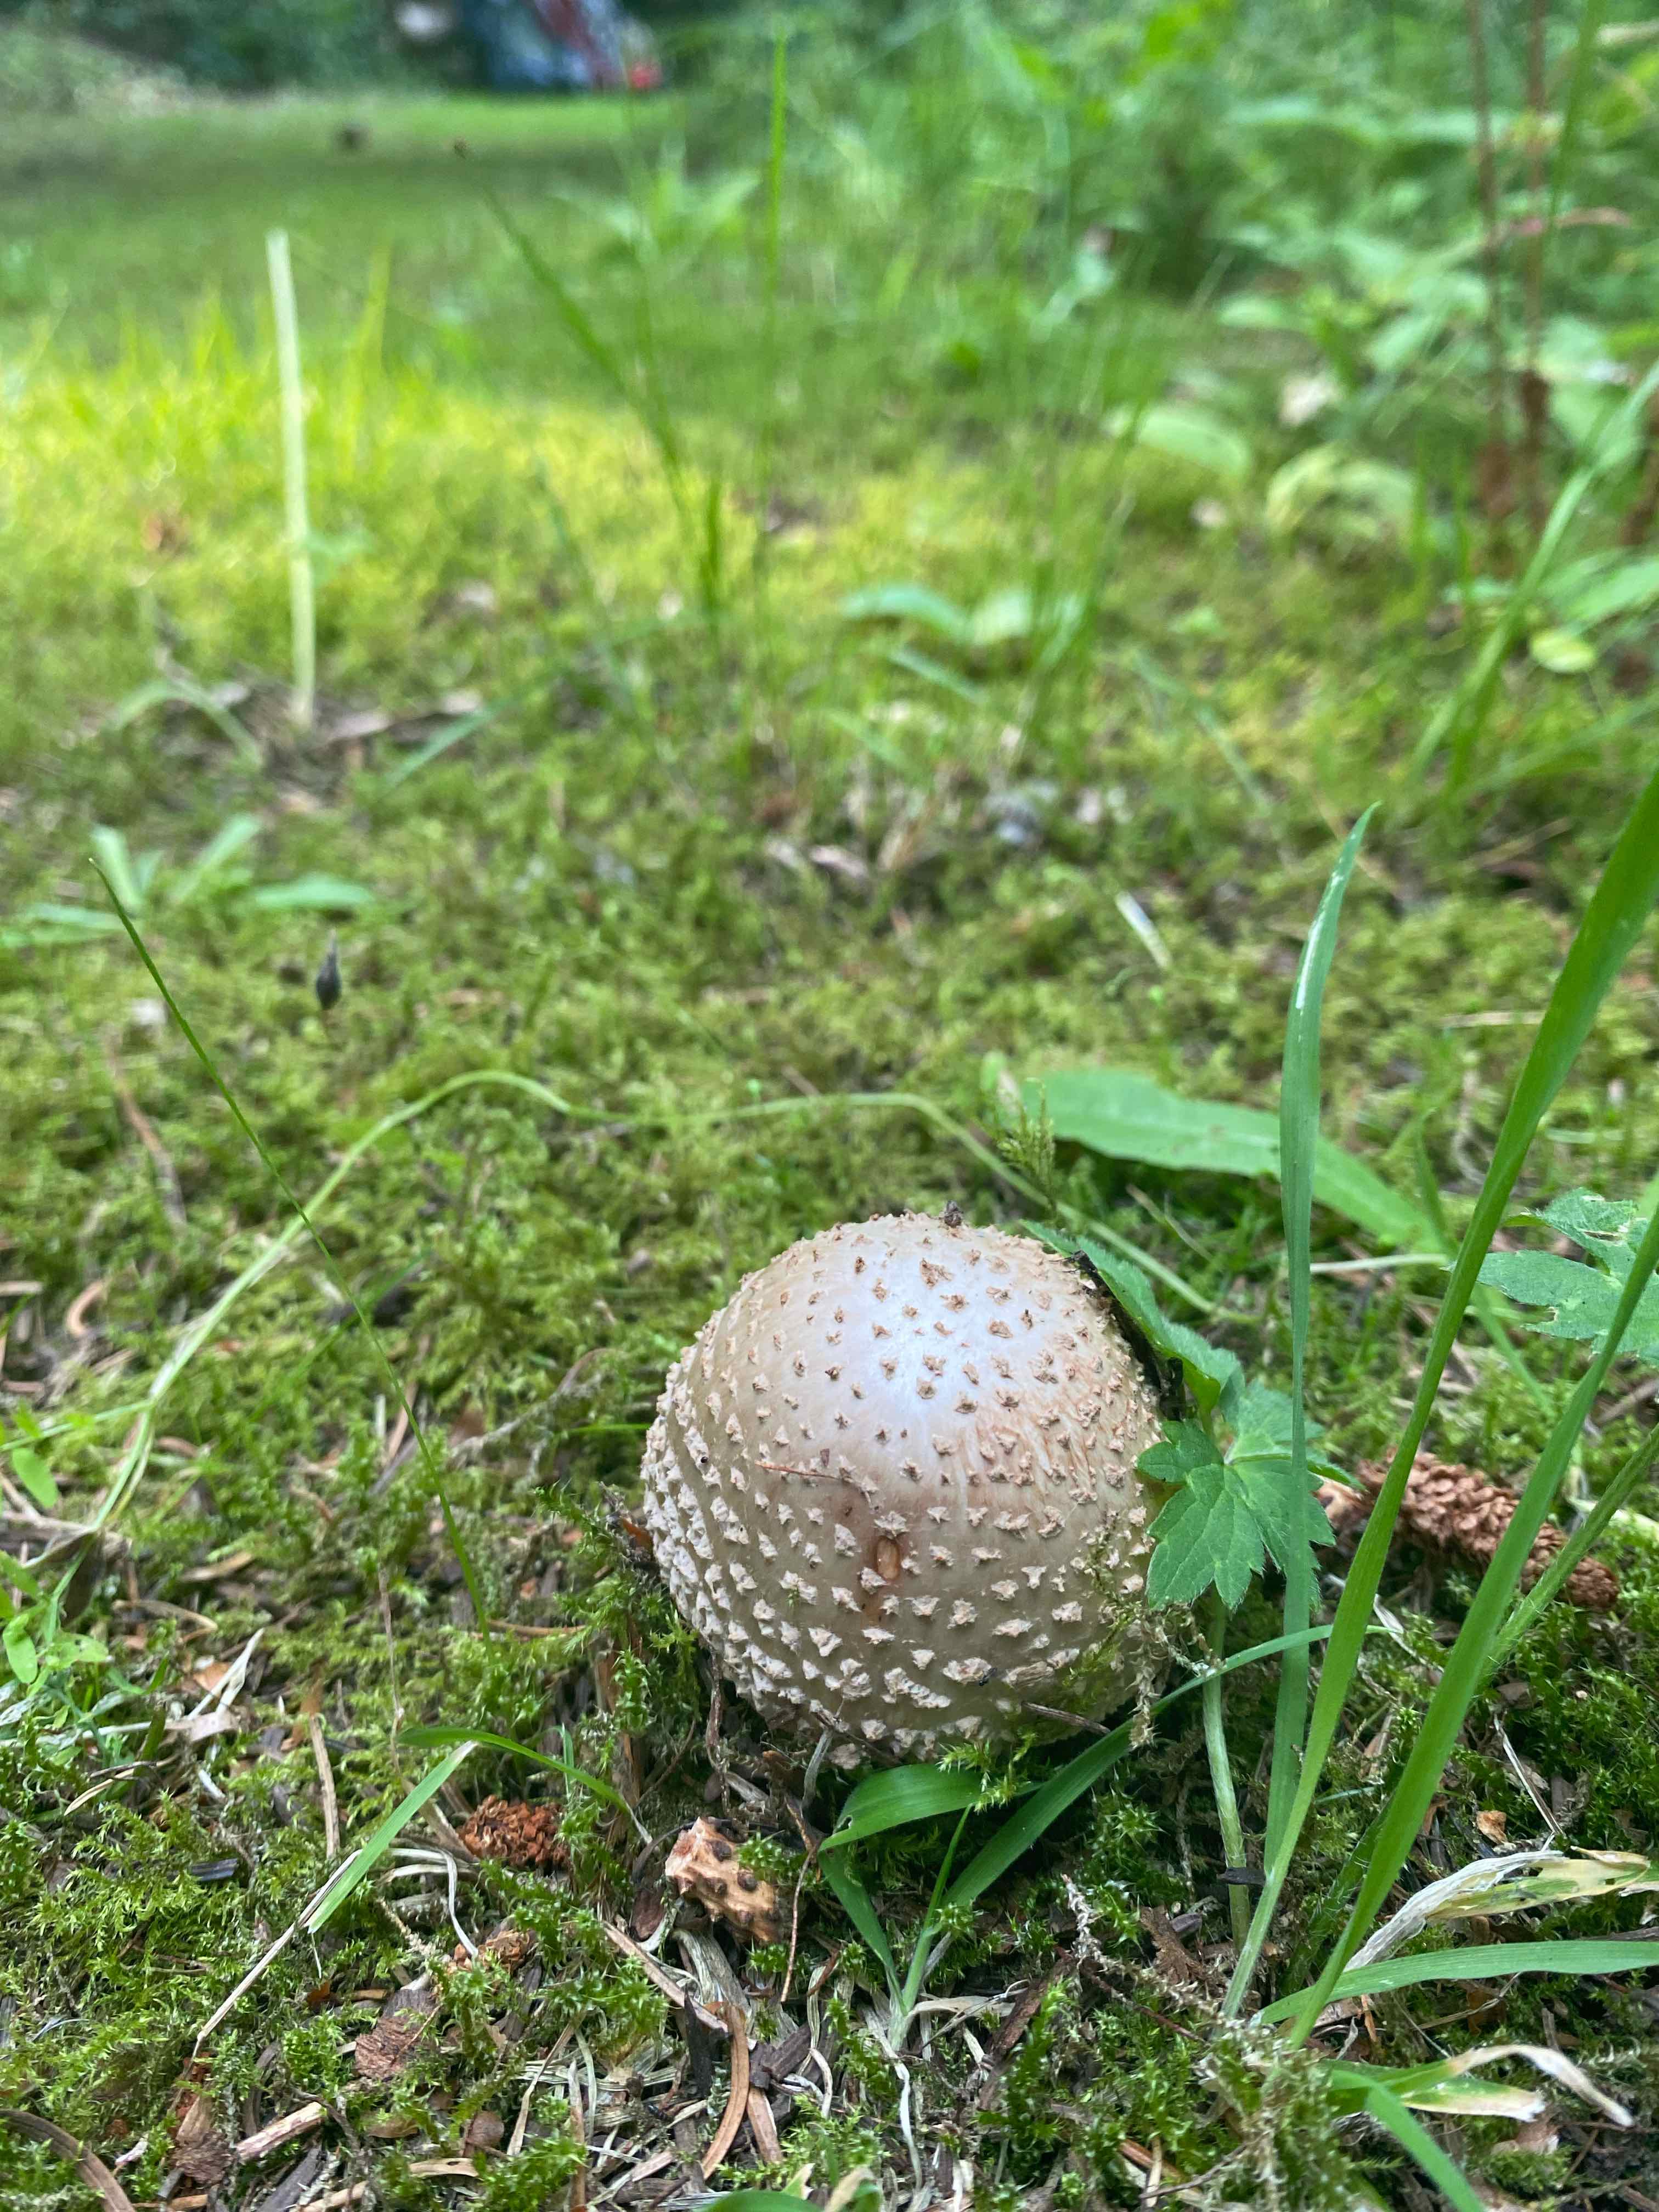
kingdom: Fungi
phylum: Basidiomycota
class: Agaricomycetes
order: Agaricales
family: Amanitaceae
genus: Amanita
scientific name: Amanita rubescens
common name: rødmende fluesvamp
